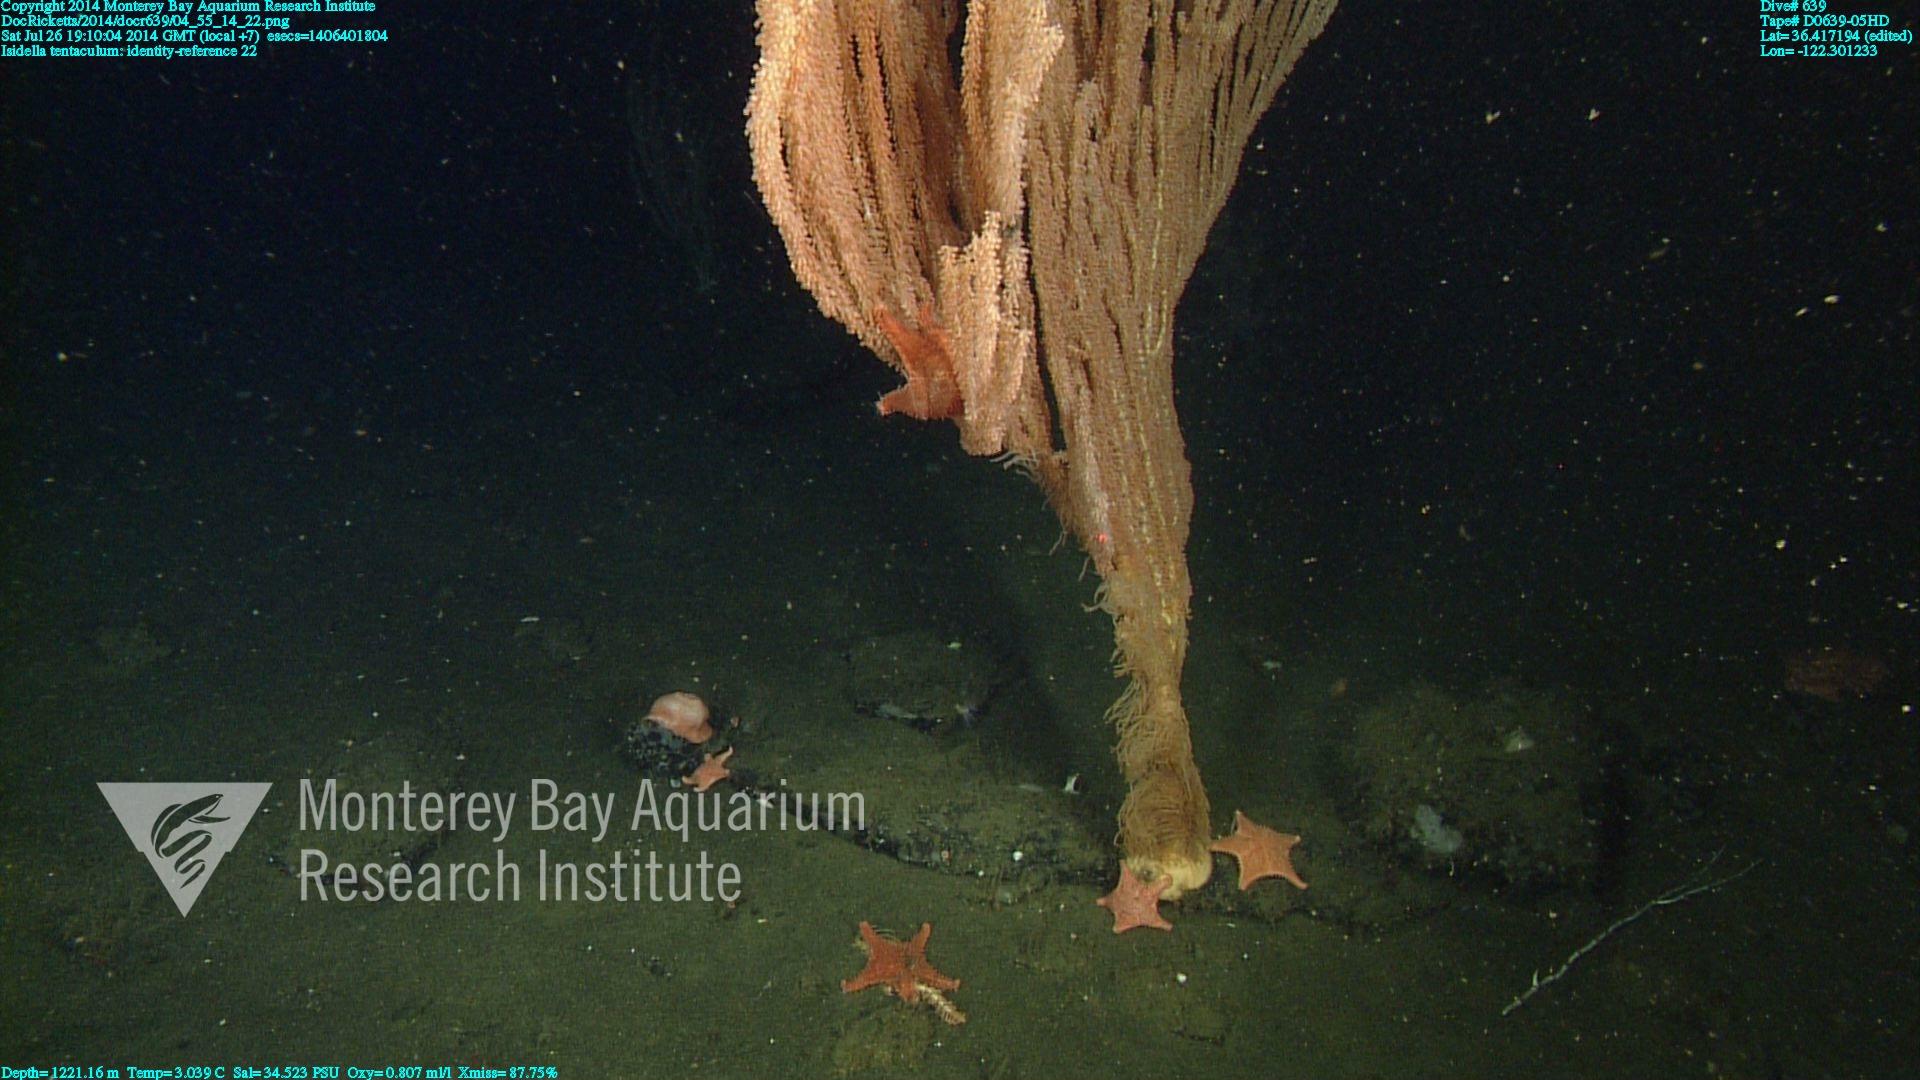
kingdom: Animalia
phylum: Cnidaria
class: Anthozoa
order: Scleralcyonacea
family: Keratoisididae
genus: Isidella
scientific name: Isidella tentaculum
